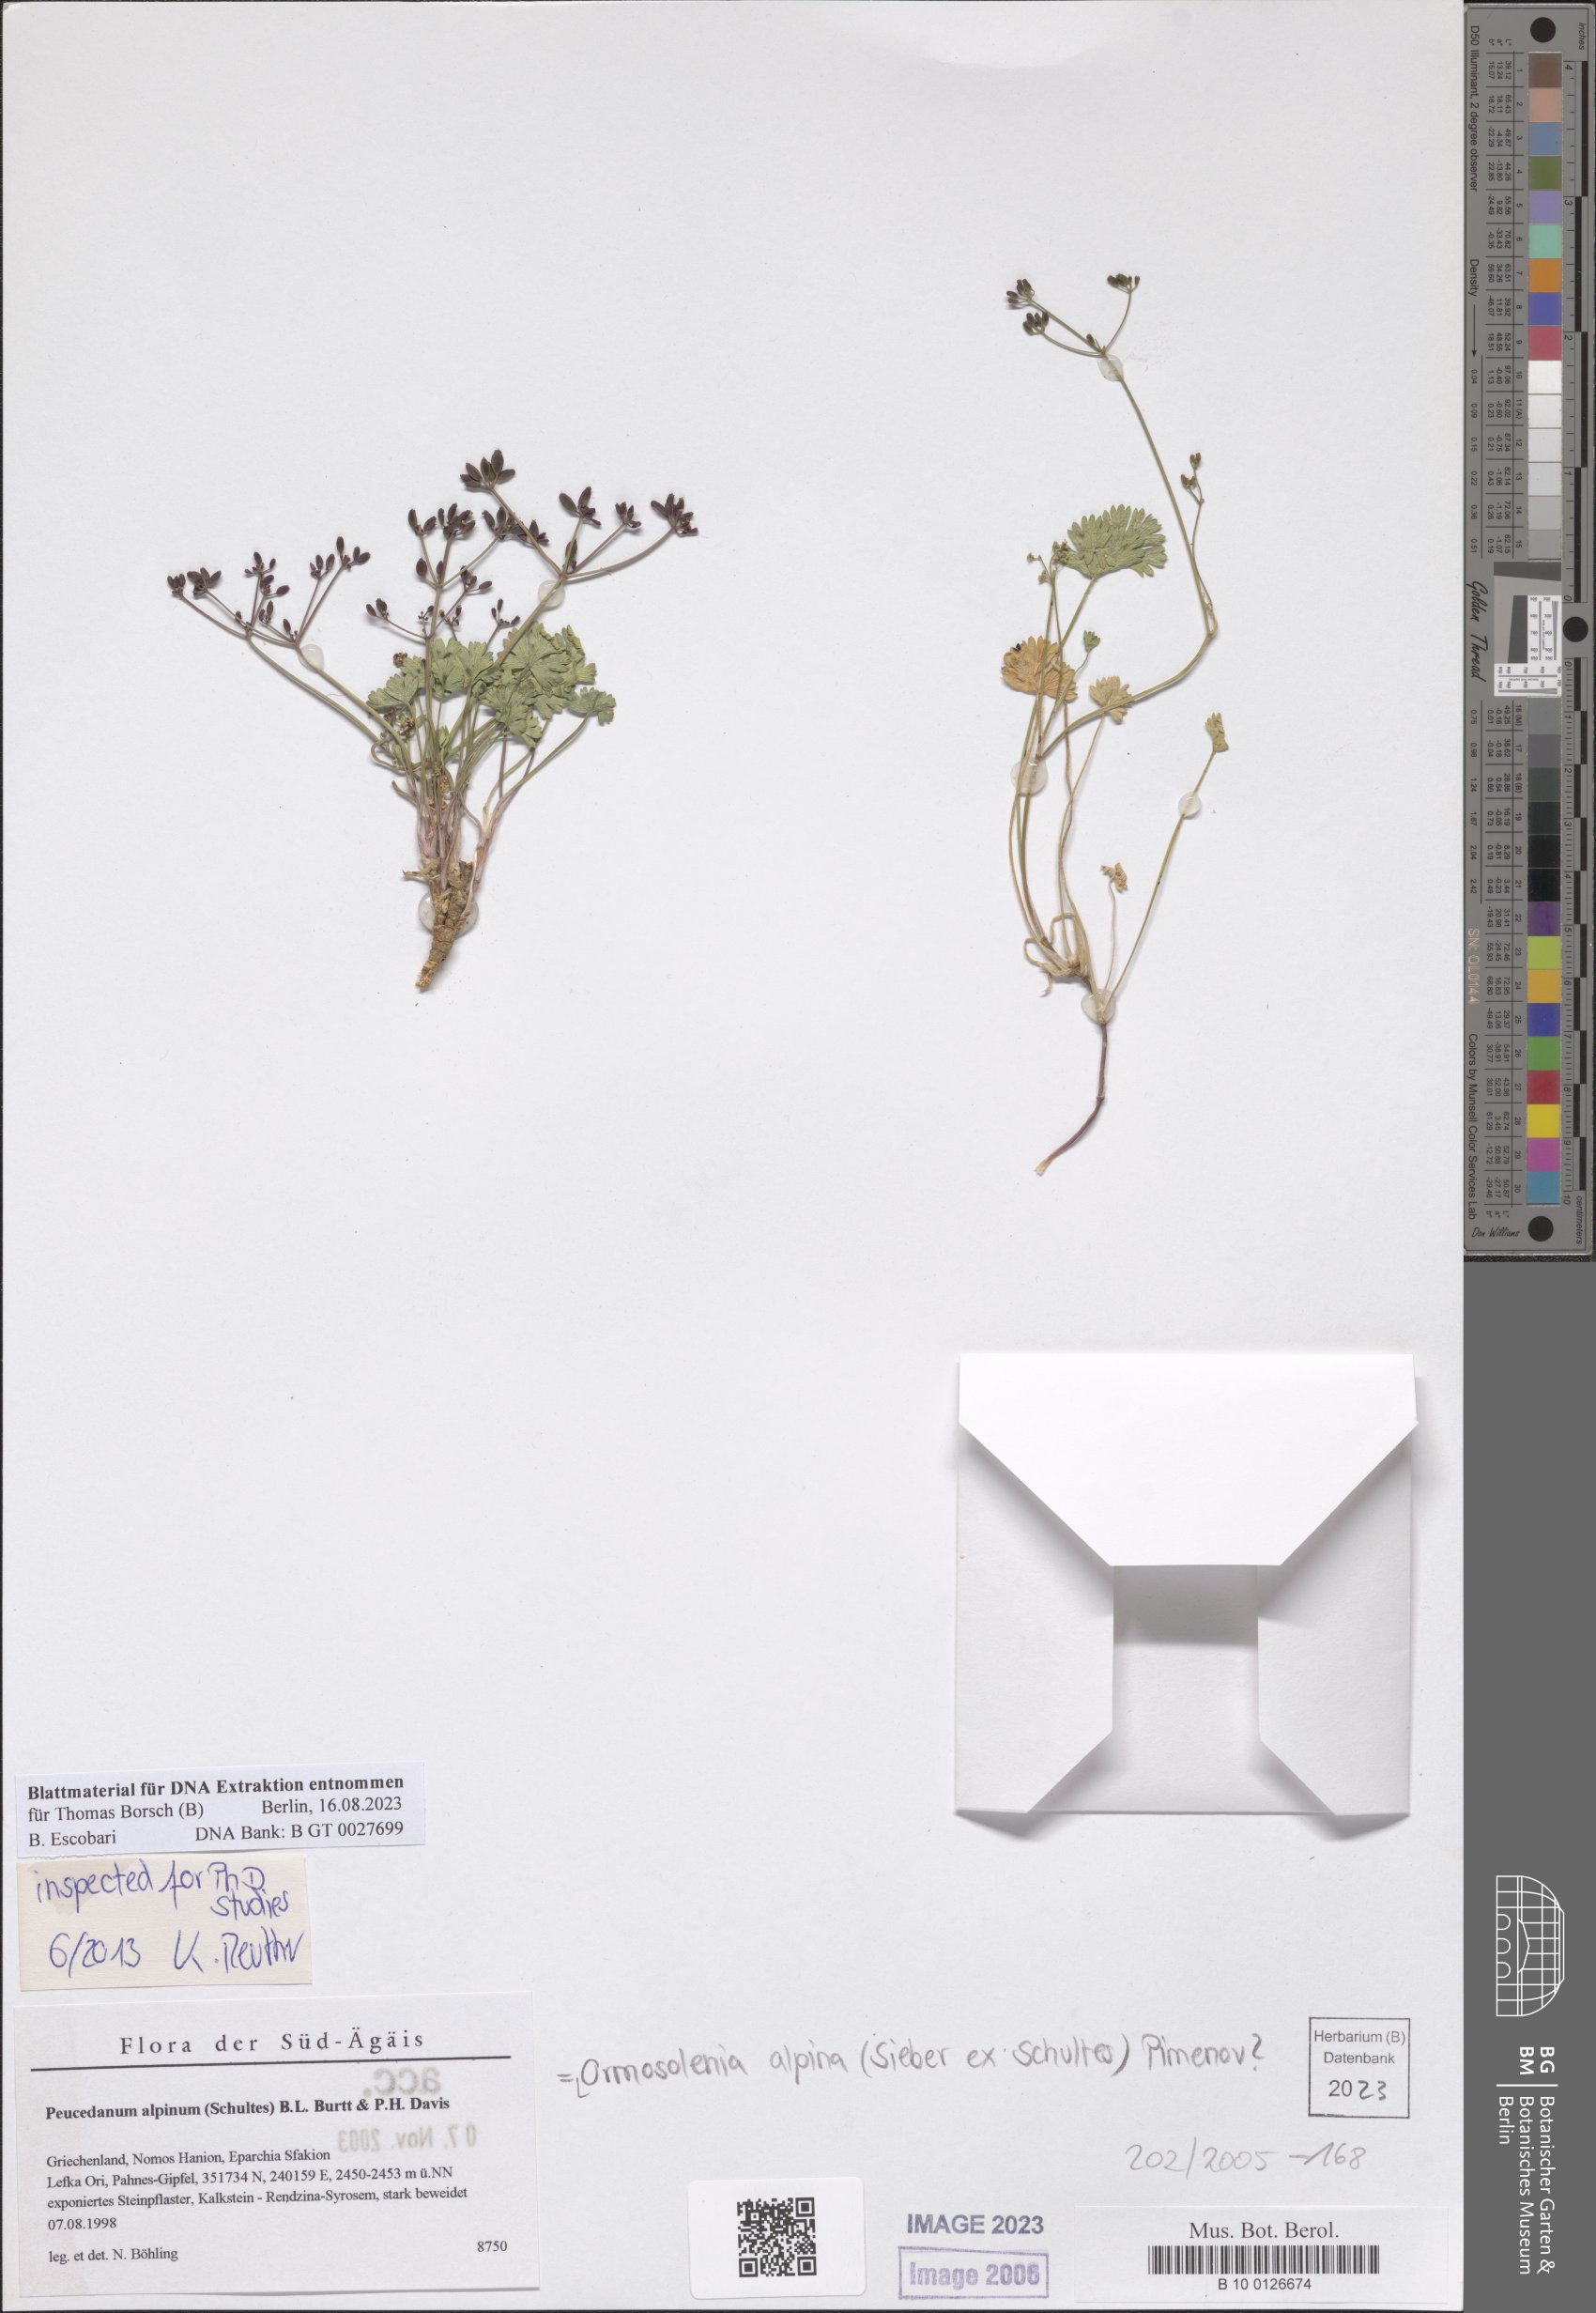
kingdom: Plantae
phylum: Tracheophyta
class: Magnoliopsida
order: Apiales
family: Apiaceae
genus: Ormosolenia
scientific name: Ormosolenia alpina
